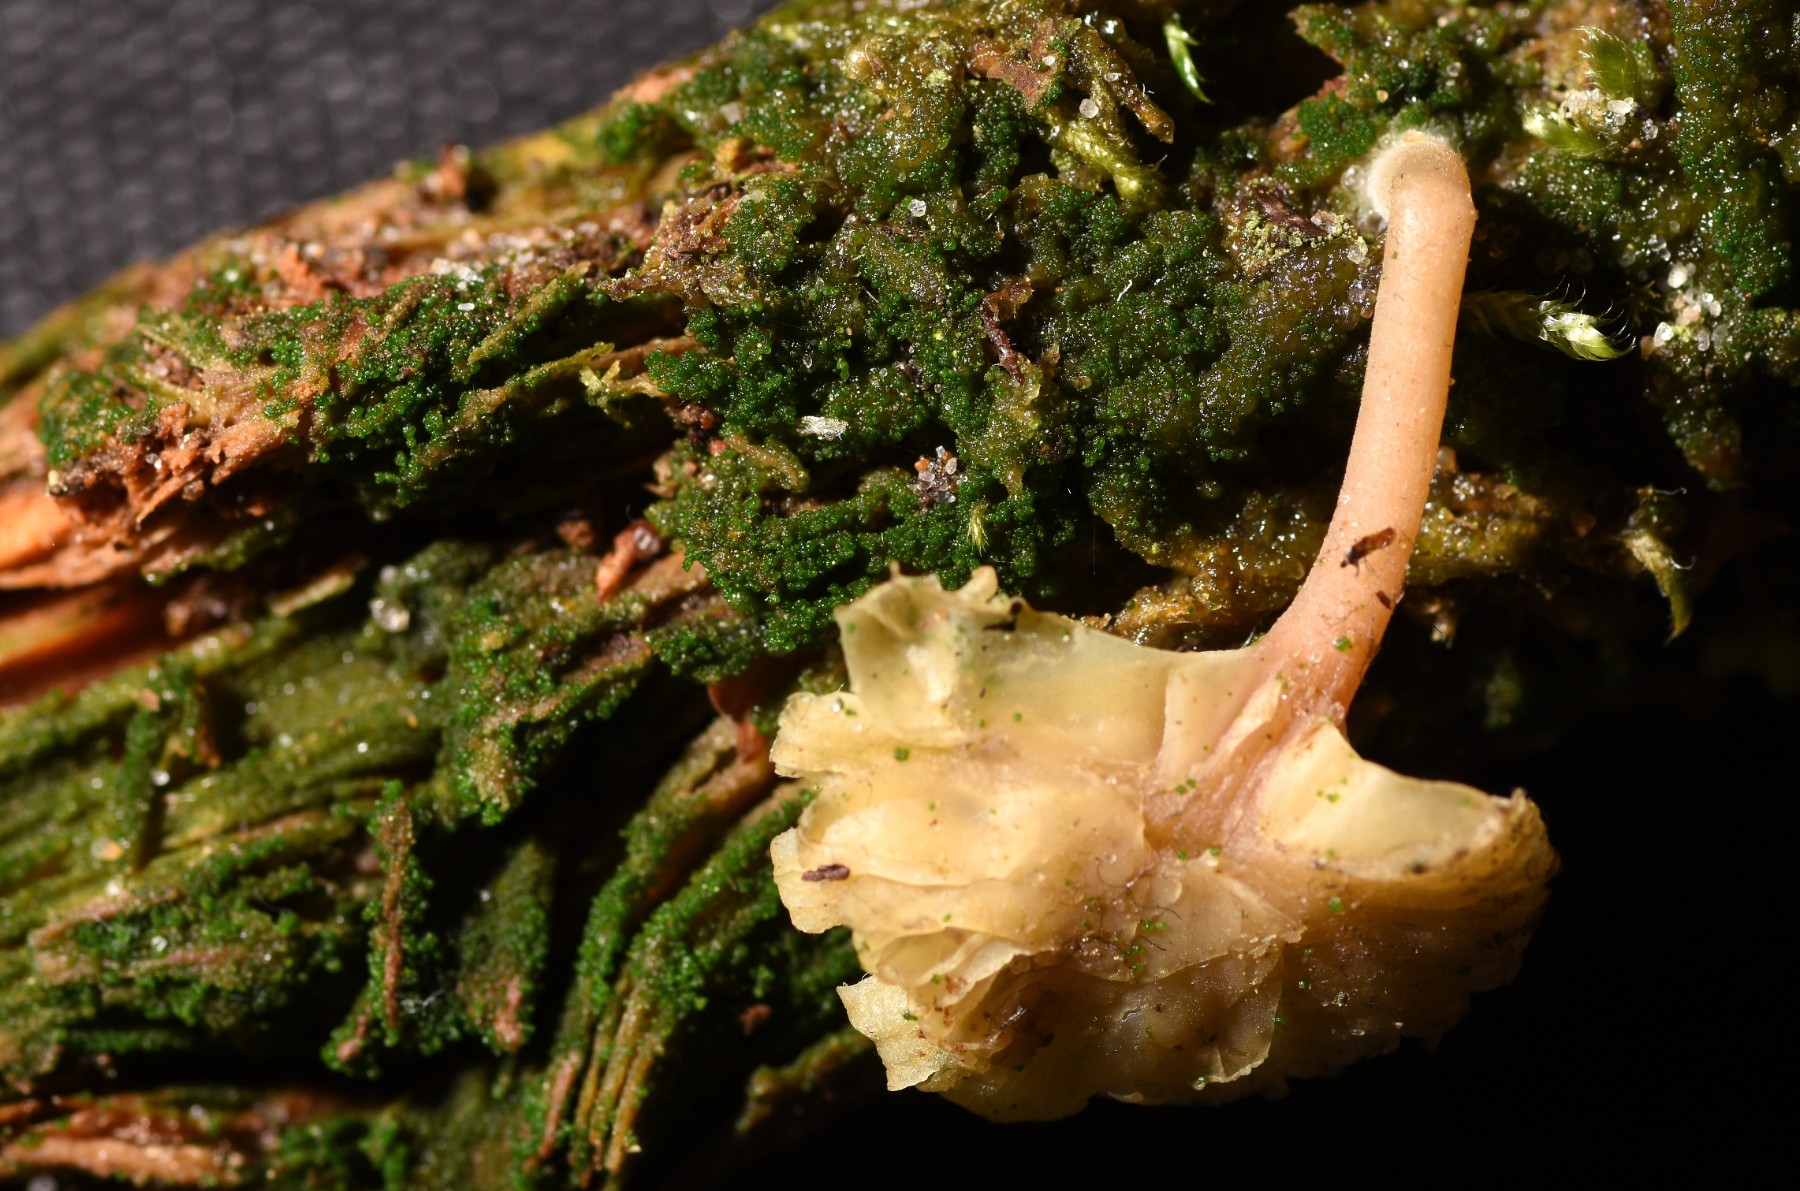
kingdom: Fungi
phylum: Basidiomycota
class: Agaricomycetes
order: Agaricales
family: Hygrophoraceae
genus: Lichenomphalia
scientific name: Lichenomphalia umbellifera
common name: tørve-lavhat
